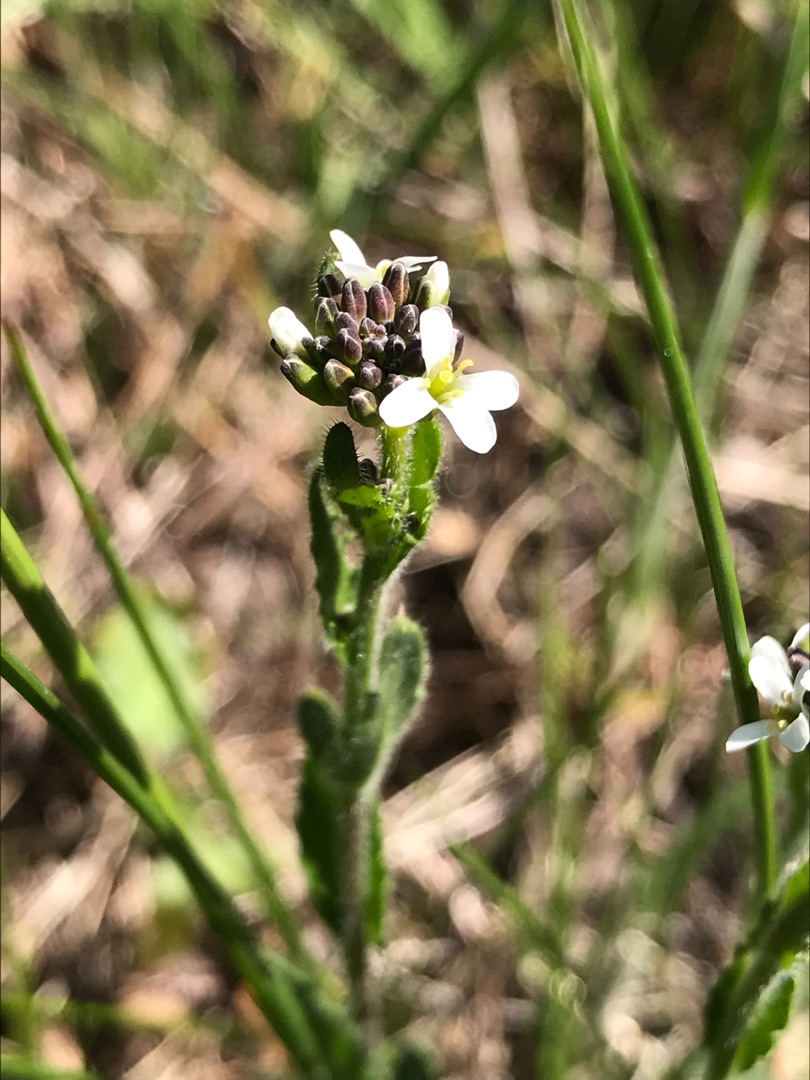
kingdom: Plantae
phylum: Tracheophyta
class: Magnoliopsida
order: Brassicales
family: Brassicaceae
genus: Arabis
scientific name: Arabis hirsuta
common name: Stivhåret kalkkarse
